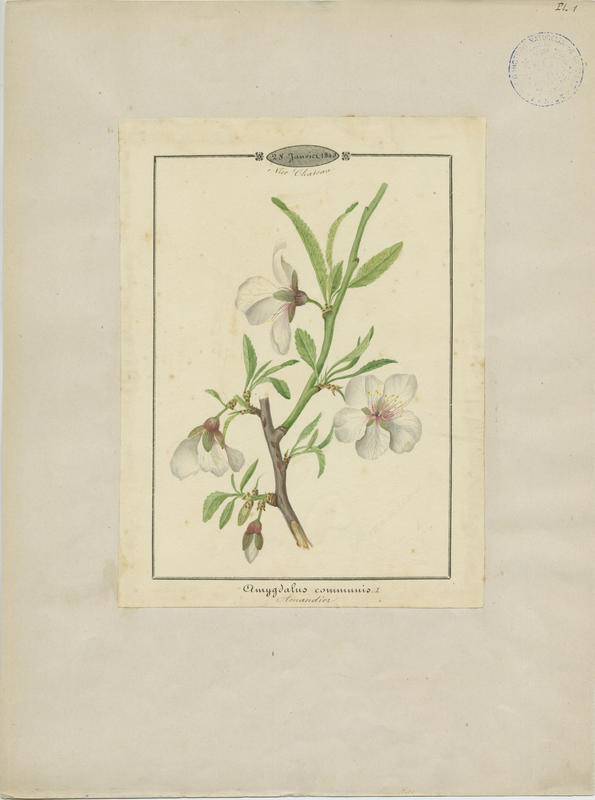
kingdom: Plantae
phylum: Tracheophyta
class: Magnoliopsida
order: Rosales
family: Rosaceae
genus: Prunus
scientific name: Prunus amygdalus
